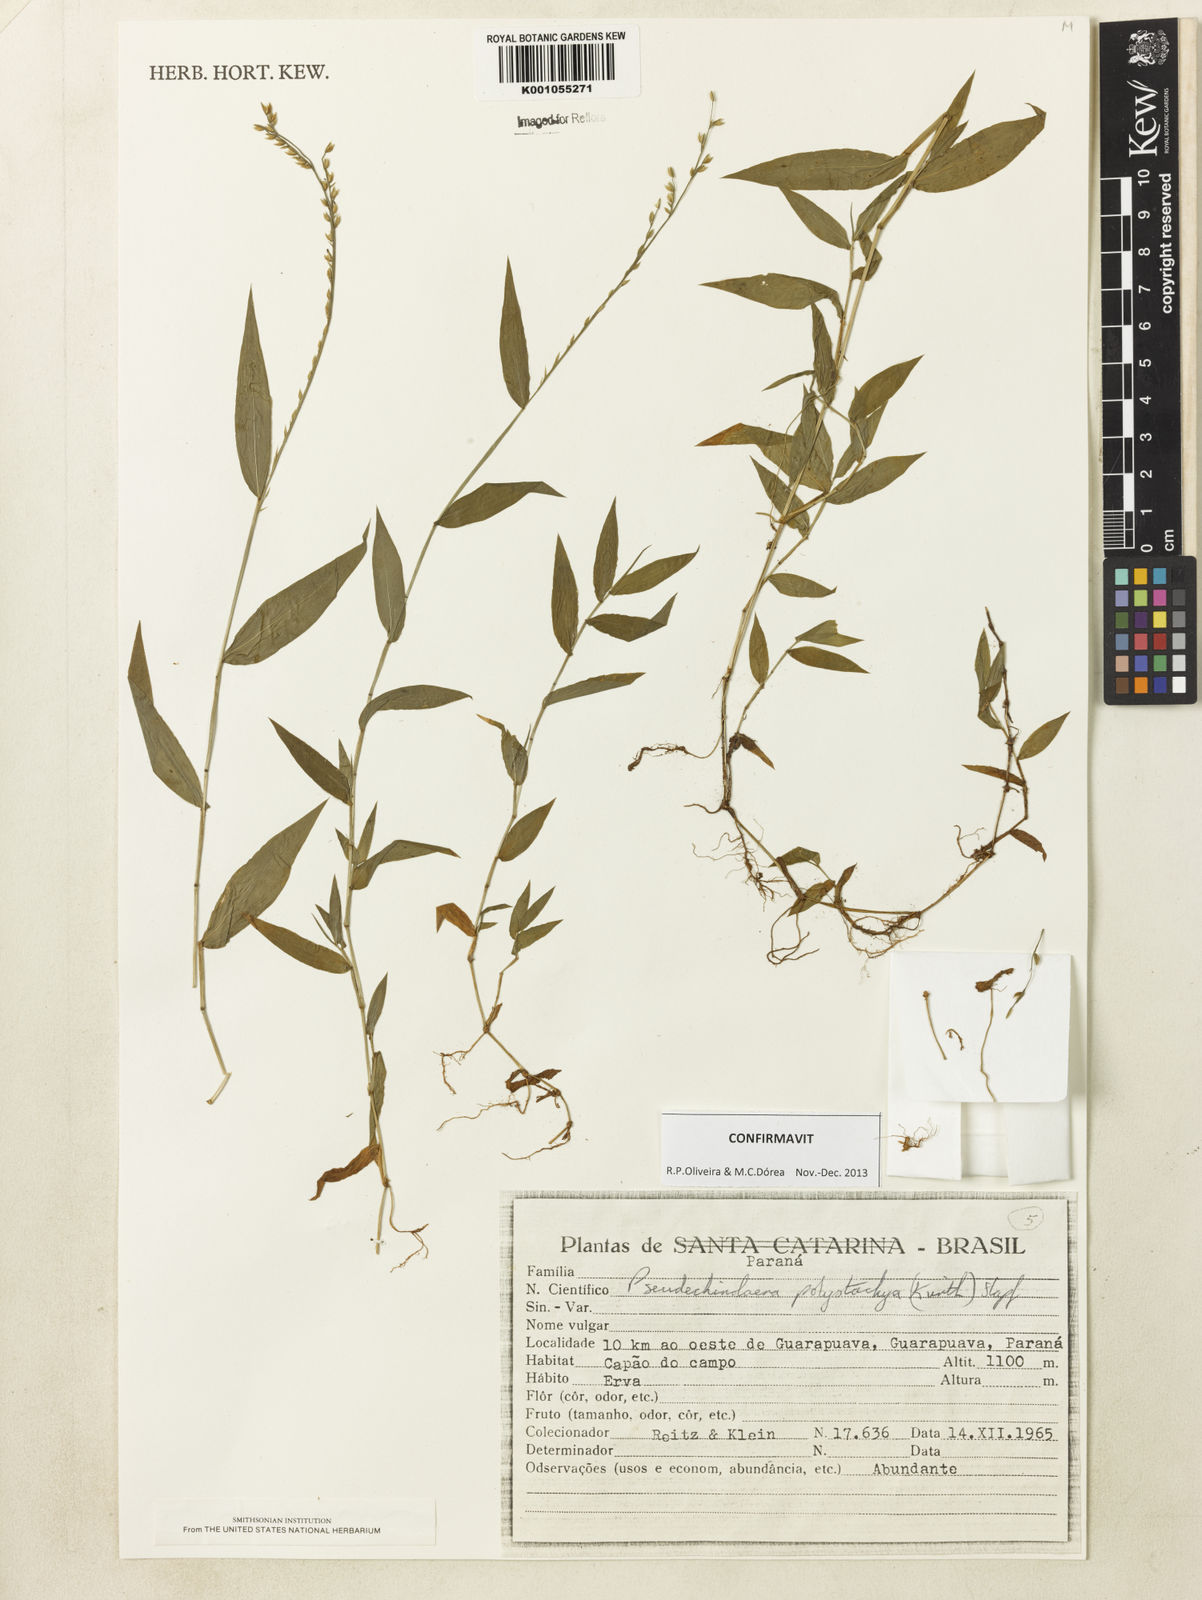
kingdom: Plantae
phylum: Tracheophyta
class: Liliopsida
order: Poales
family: Poaceae
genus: Pseudechinolaena
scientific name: Pseudechinolaena polystachya
